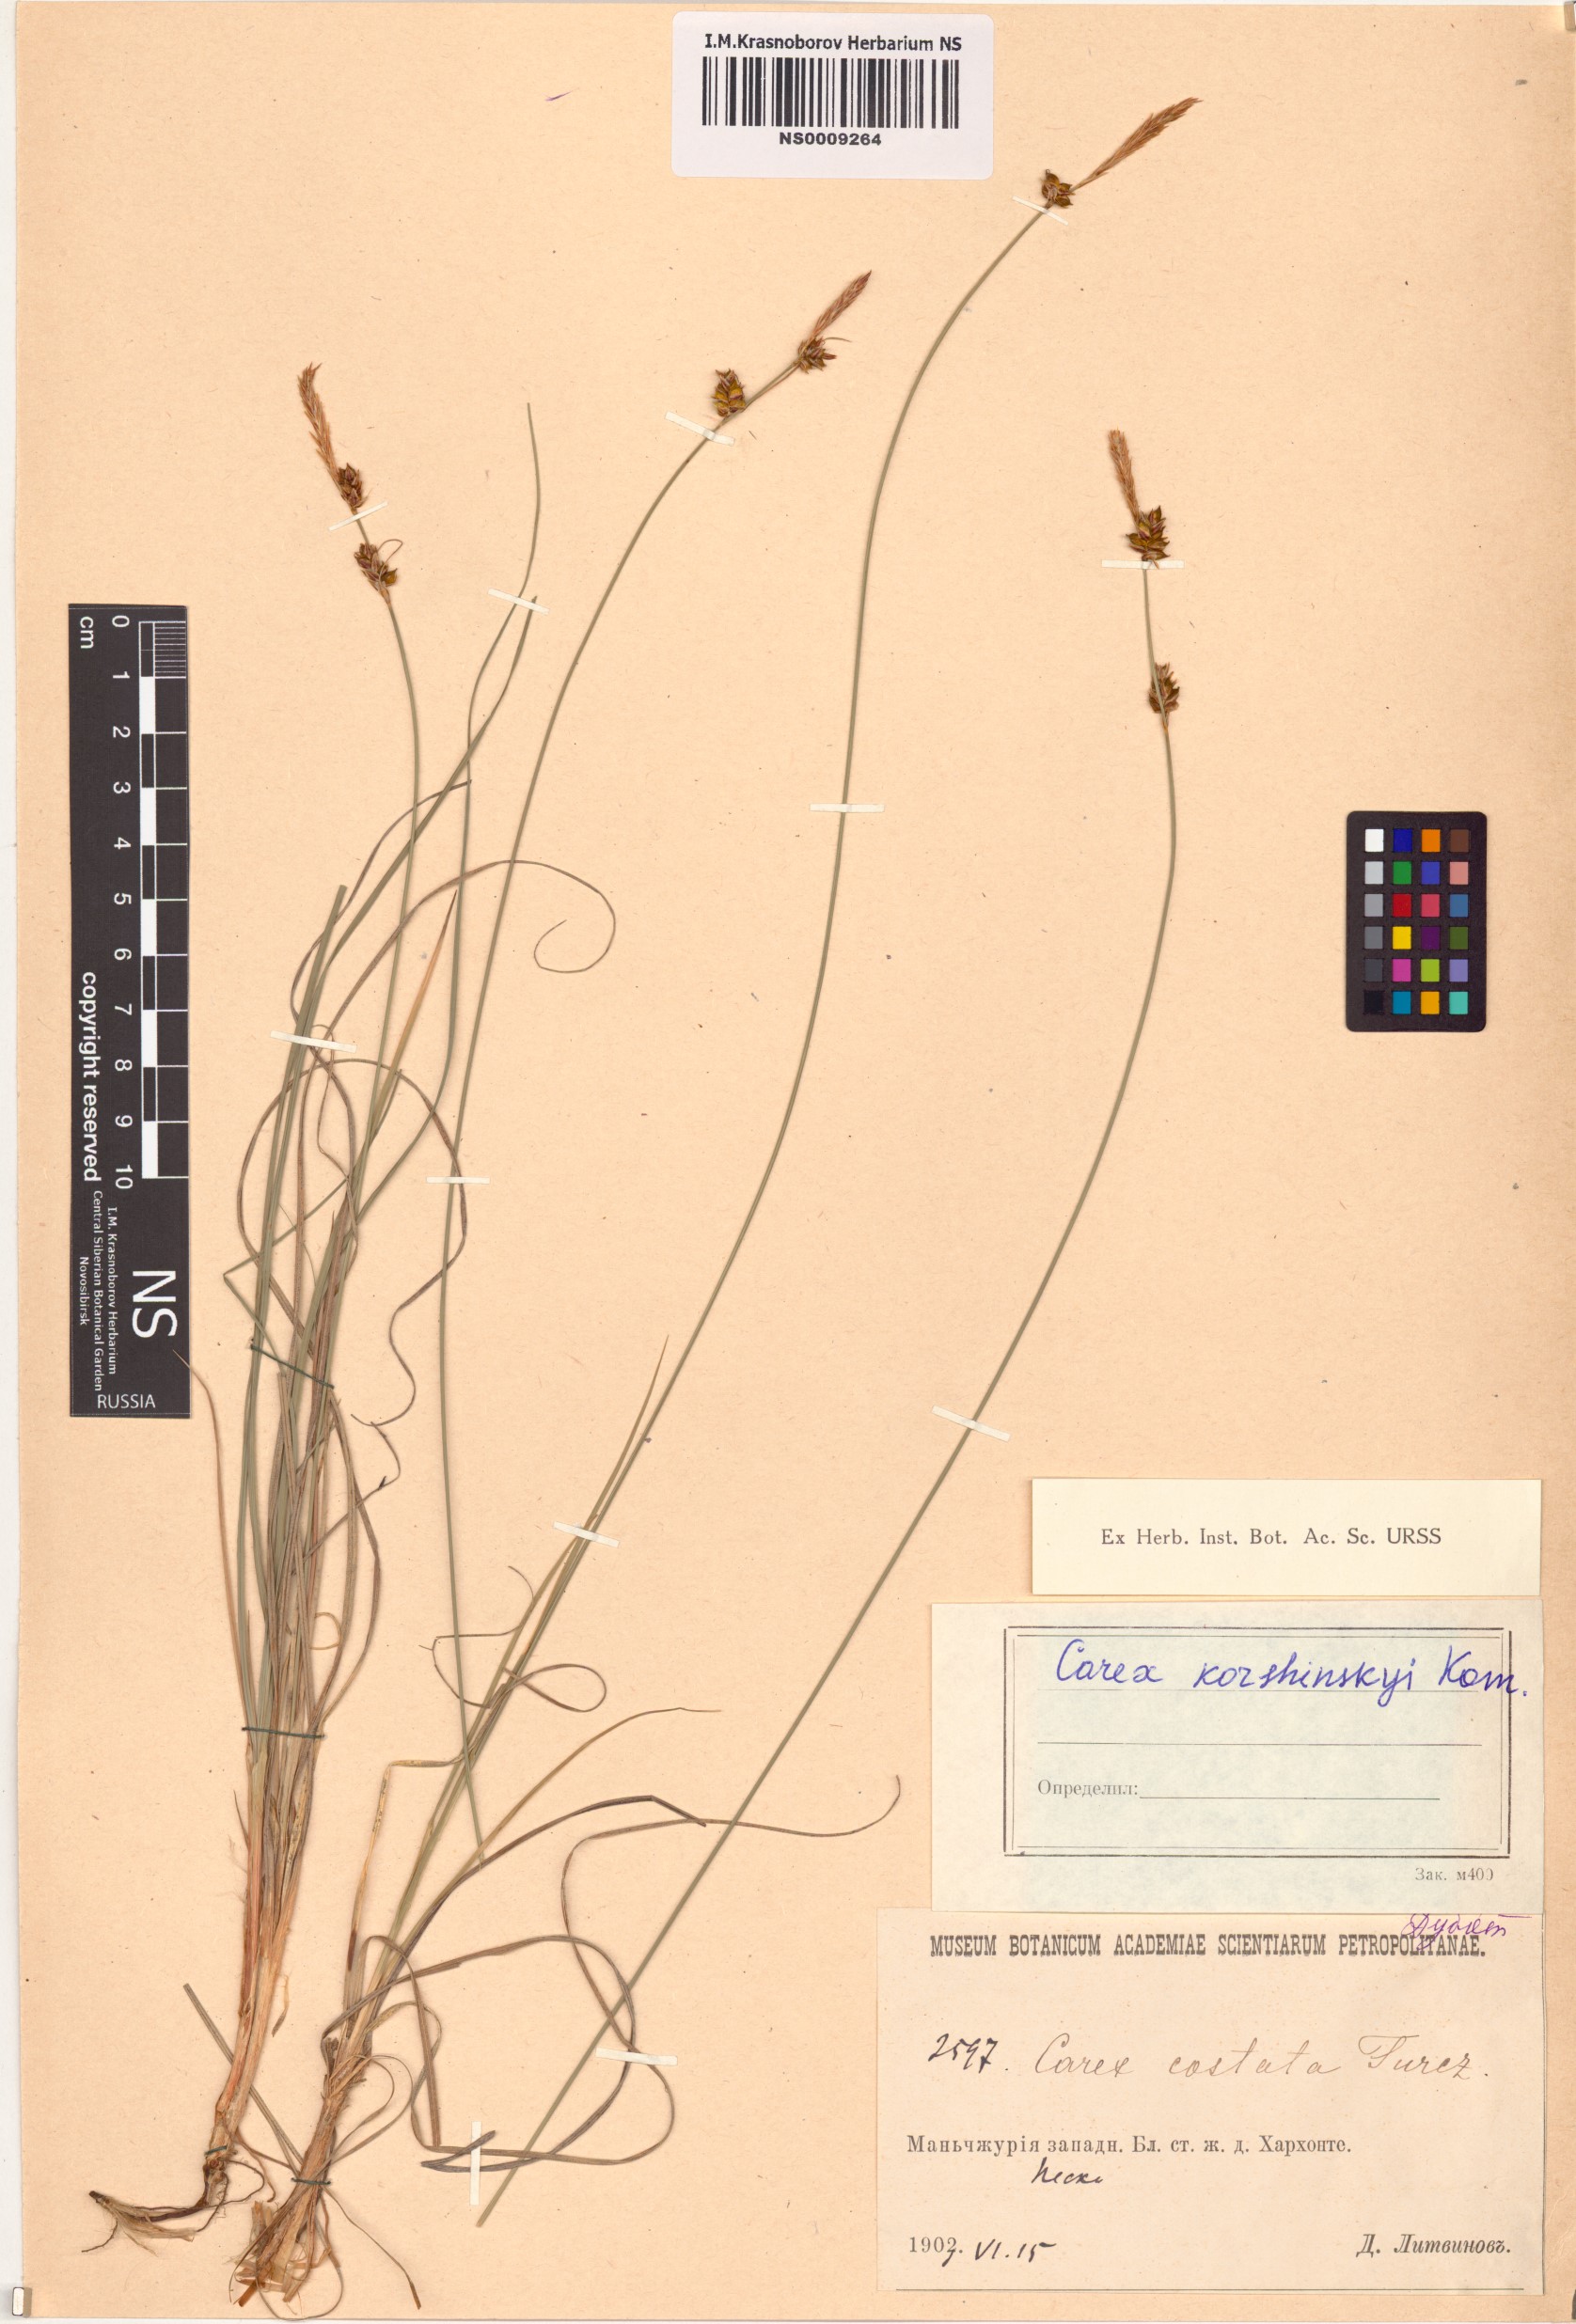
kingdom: Plantae
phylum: Tracheophyta
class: Liliopsida
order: Poales
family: Cyperaceae
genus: Carex
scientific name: Carex korshinskyi
